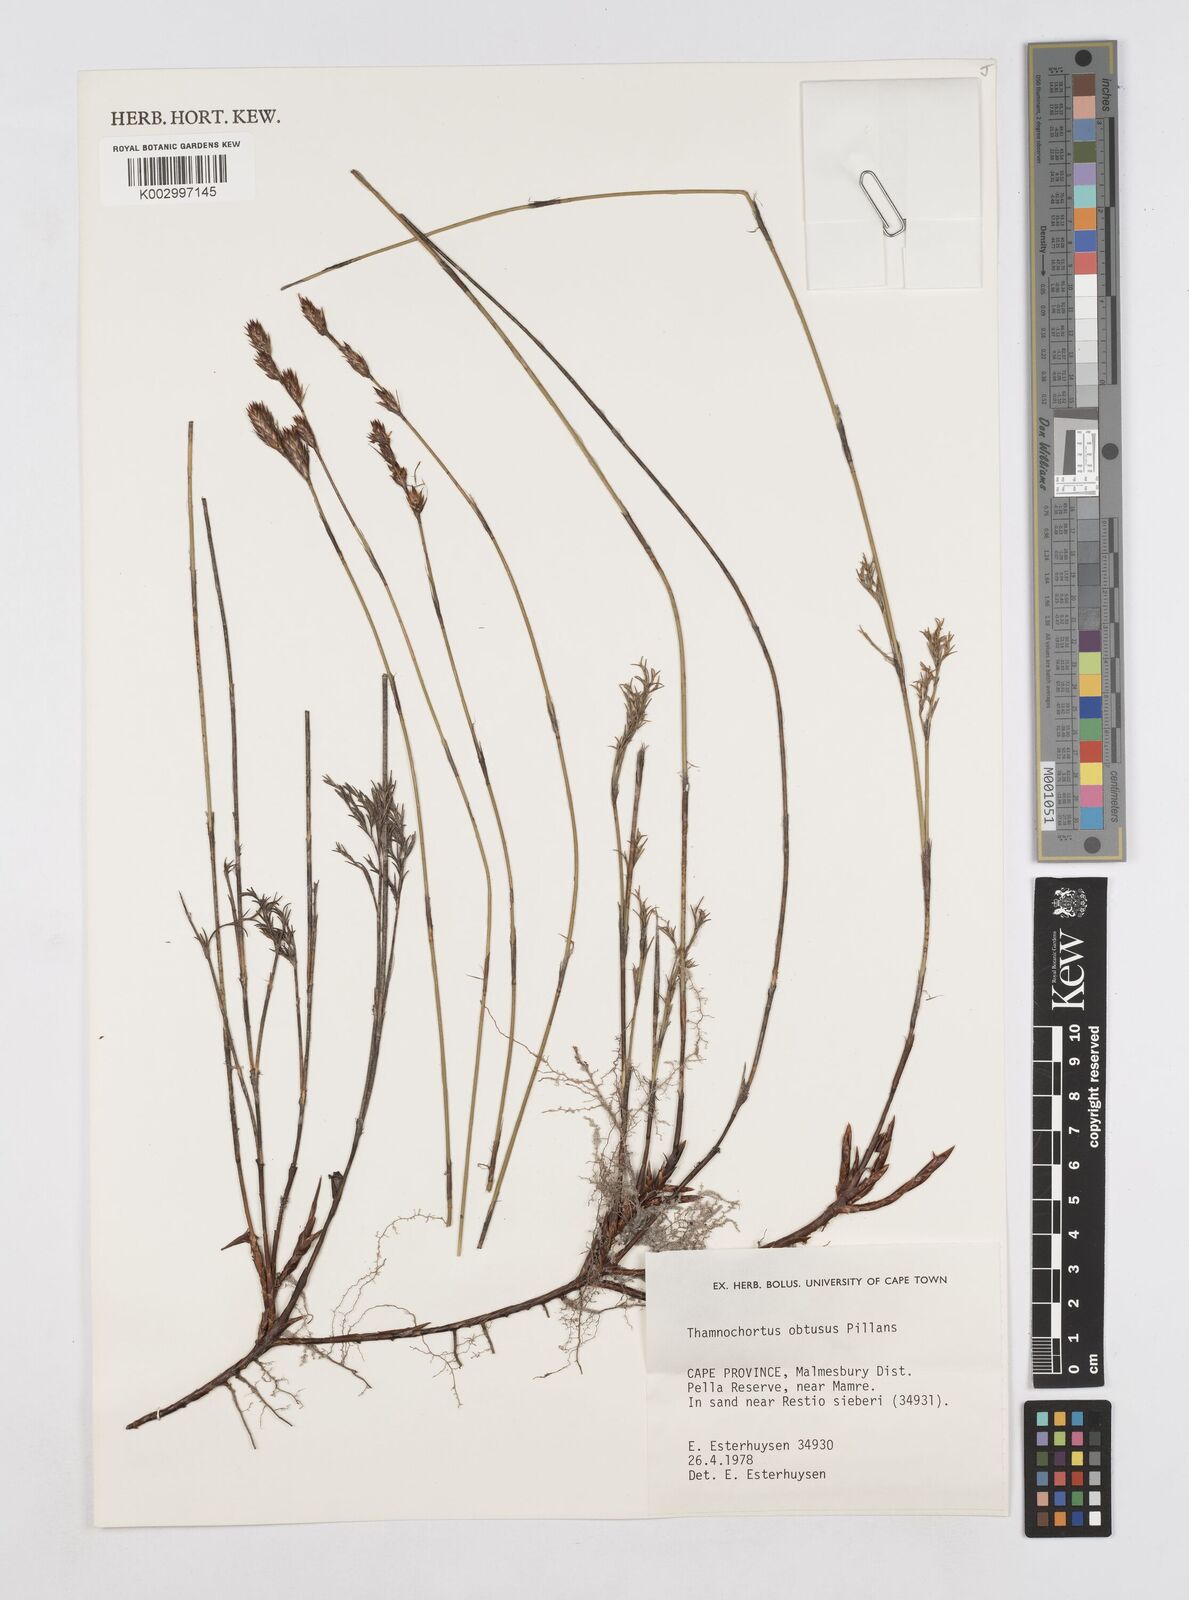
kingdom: Plantae
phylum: Tracheophyta
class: Liliopsida
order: Poales
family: Restionaceae
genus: Thamnochortus
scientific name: Thamnochortus obtusus
